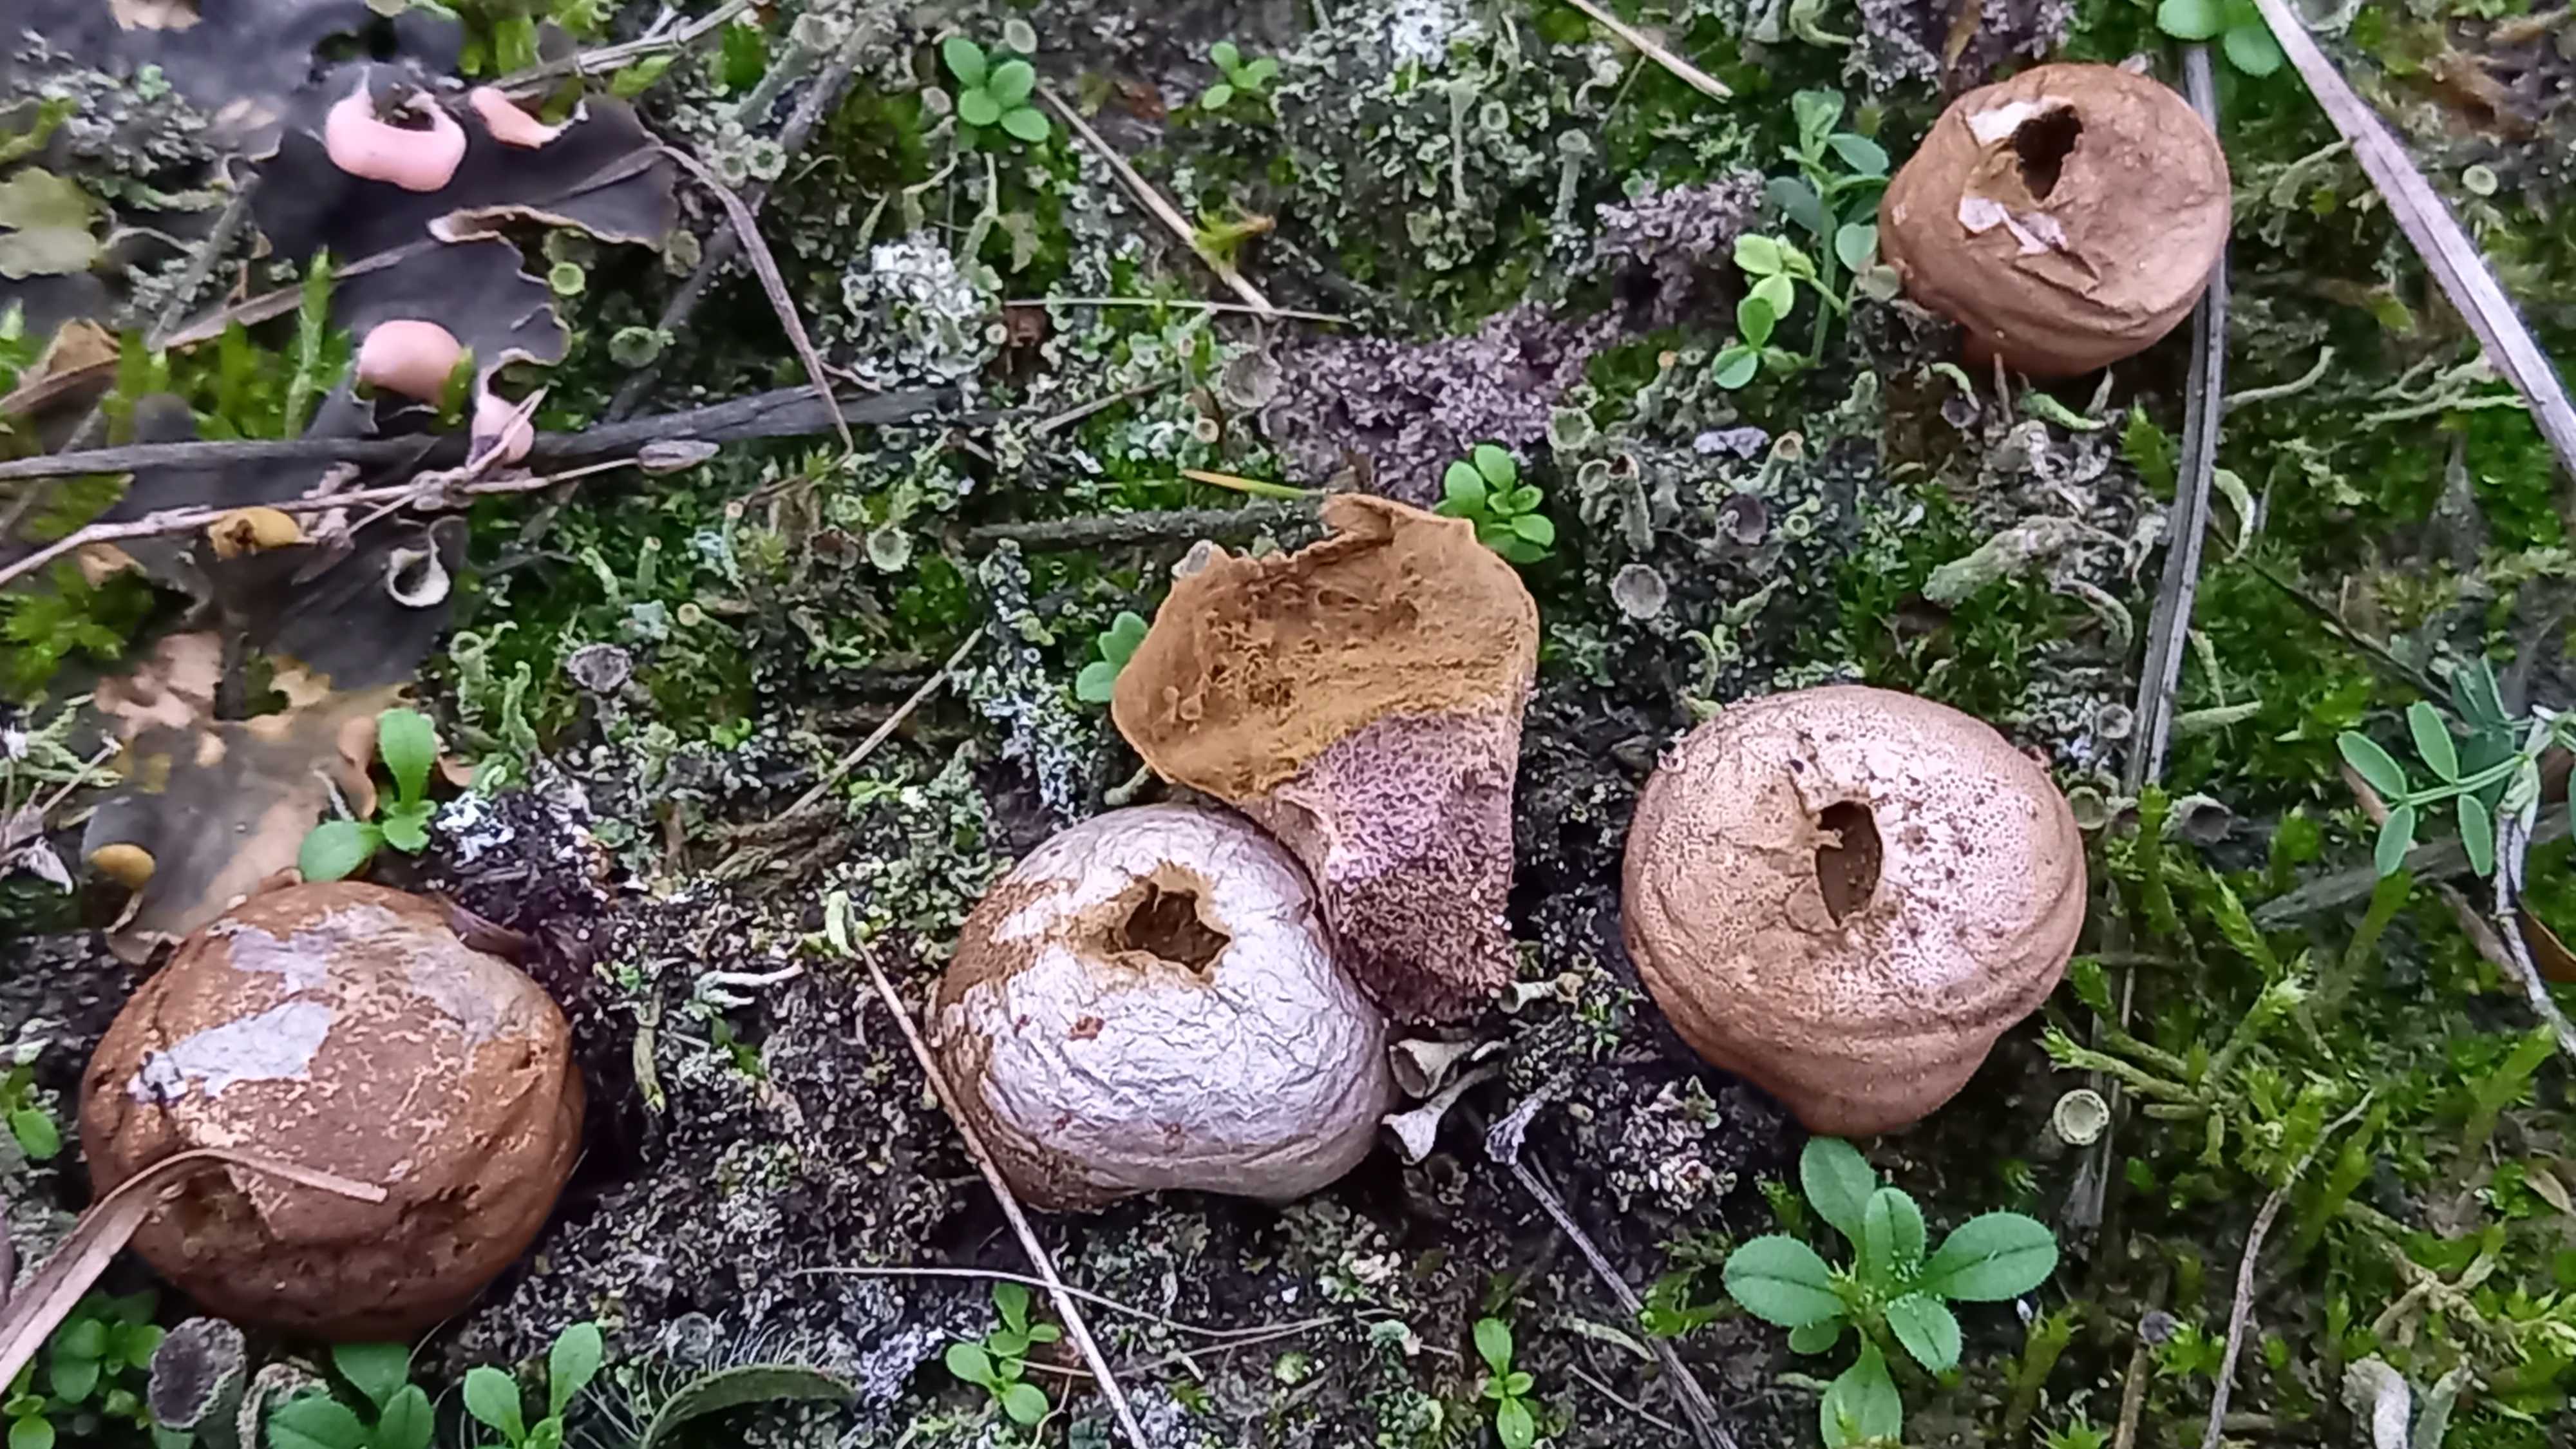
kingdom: Fungi
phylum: Basidiomycota
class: Agaricomycetes
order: Agaricales
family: Lycoperdaceae
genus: Lycoperdon
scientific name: Lycoperdon lividum
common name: mark-støvbold
